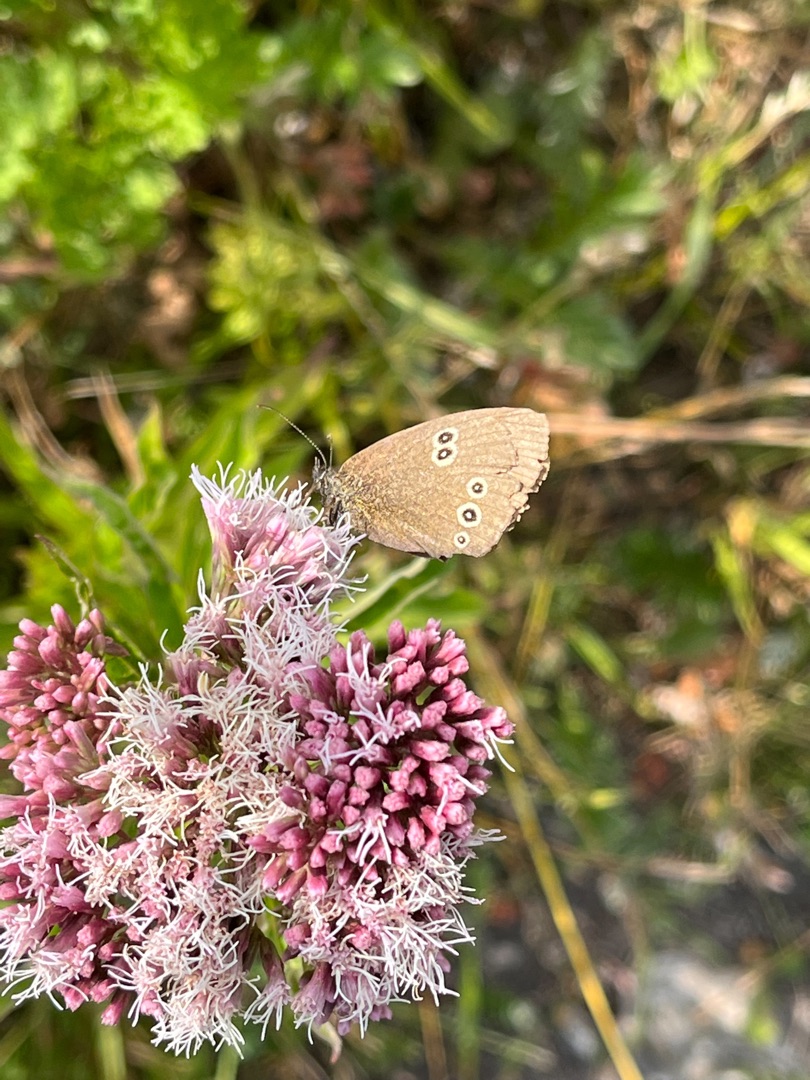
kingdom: Animalia
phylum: Arthropoda
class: Insecta
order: Lepidoptera
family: Nymphalidae
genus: Aphantopus
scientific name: Aphantopus hyperantus
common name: Engrandøje
